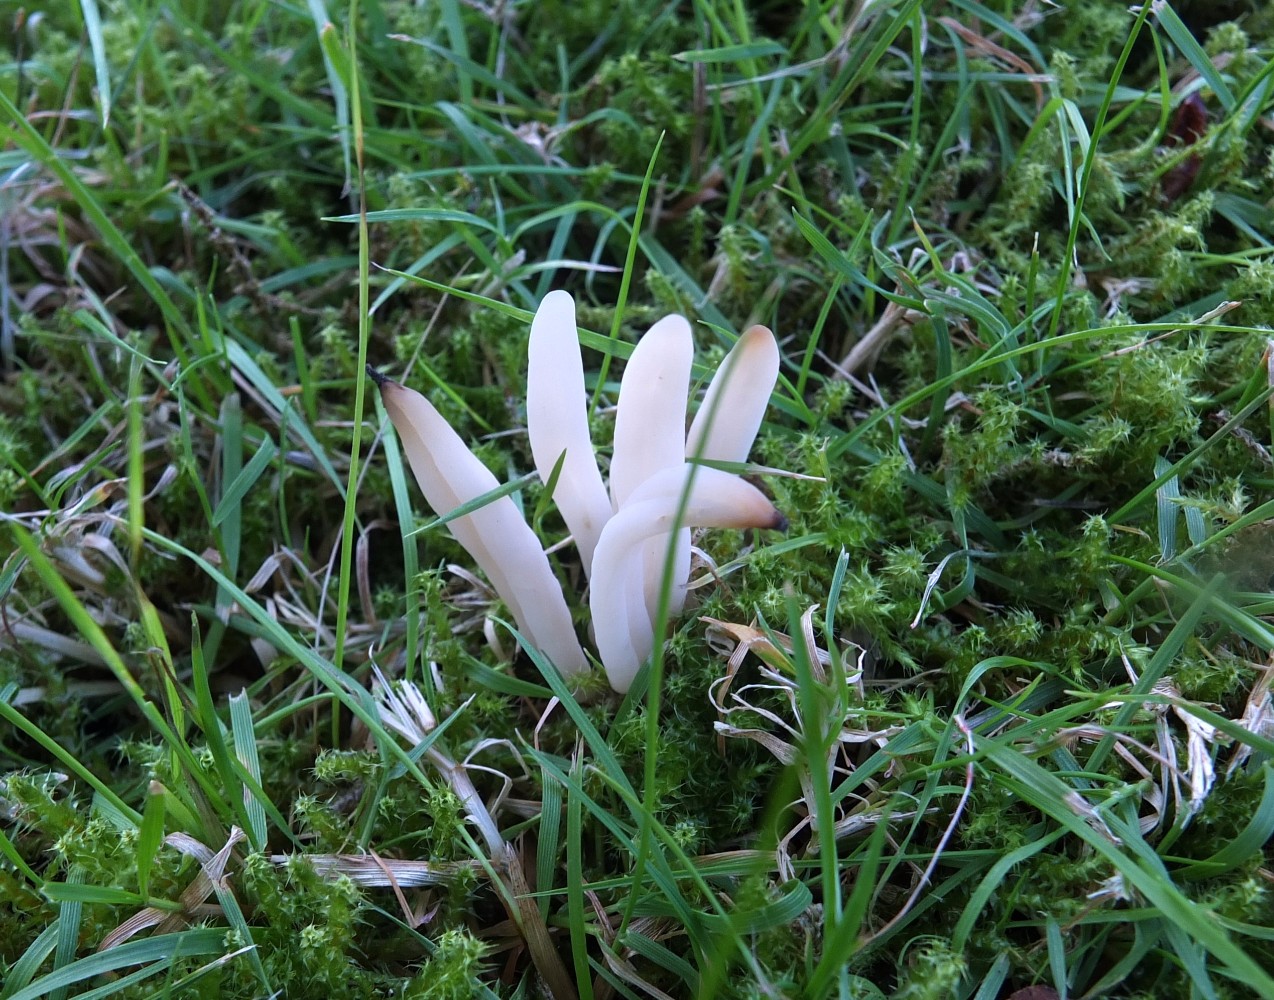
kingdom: Fungi
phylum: Basidiomycota
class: Agaricomycetes
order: Agaricales
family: Clavariaceae
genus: Clavaria
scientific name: Clavaria falcata
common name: hvid køllesvamp
